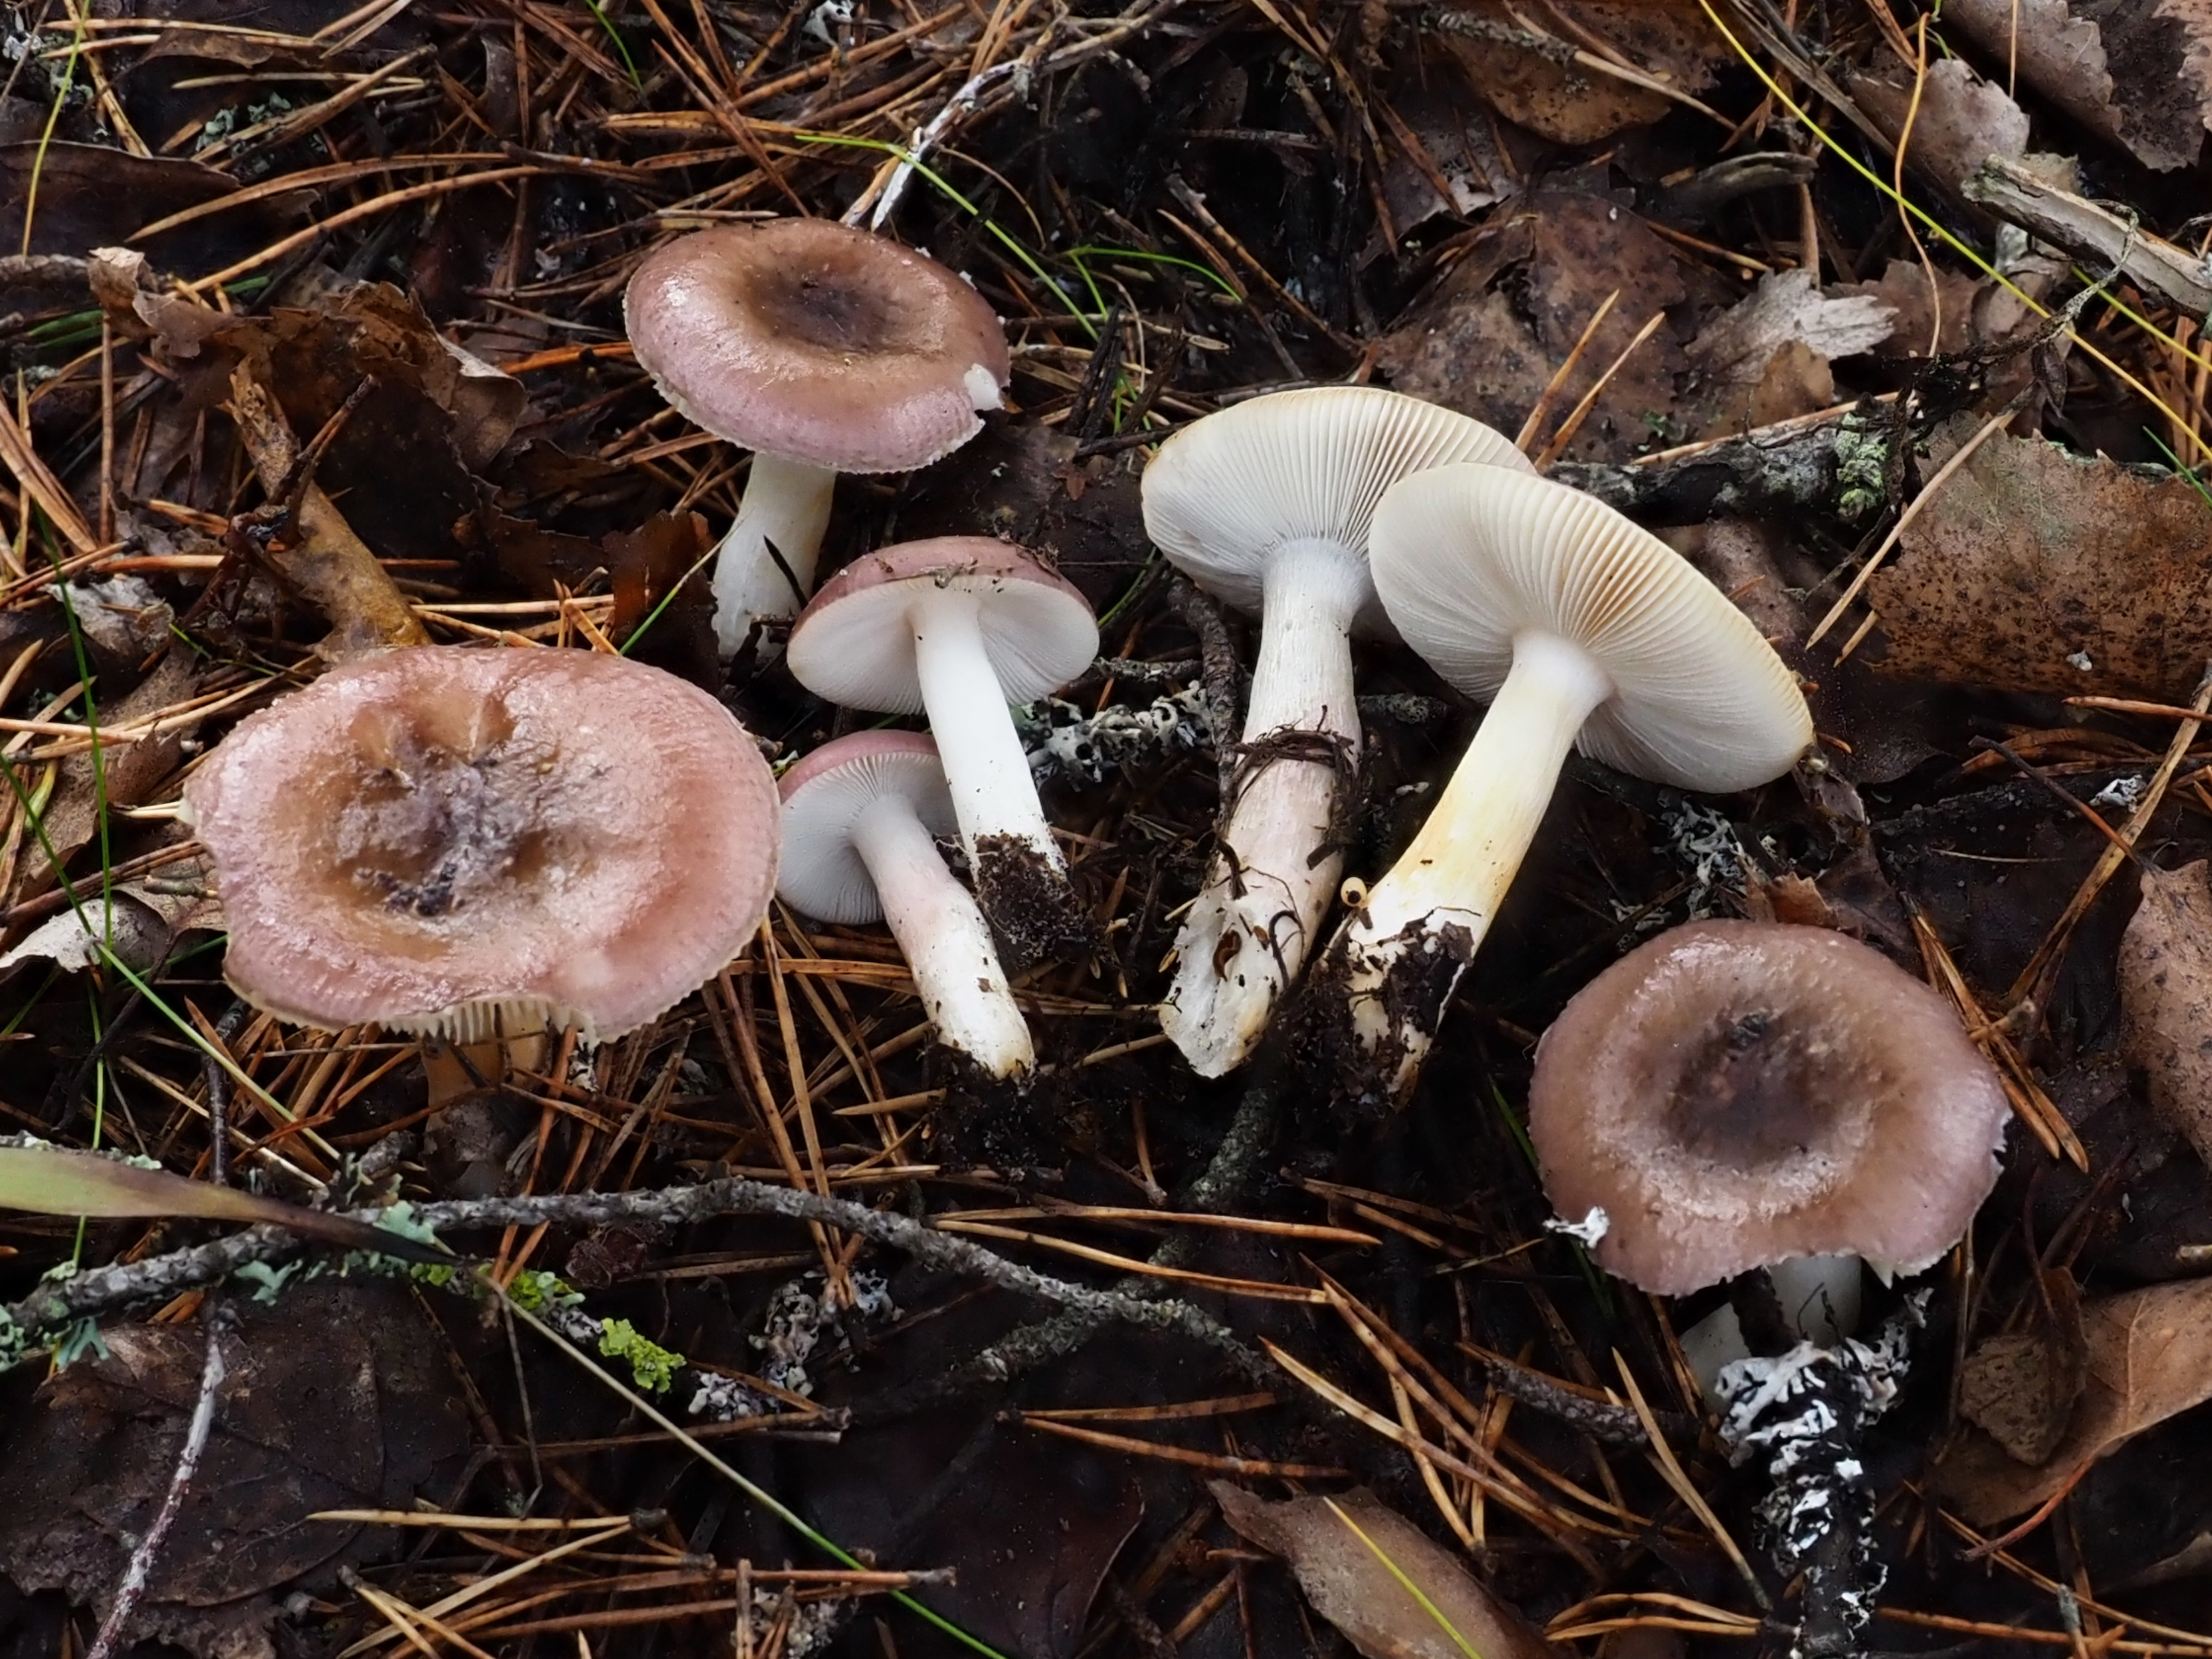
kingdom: Fungi
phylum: Basidiomycota
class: Agaricomycetes
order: Russulales
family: Russulaceae
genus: Russula
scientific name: Russula
